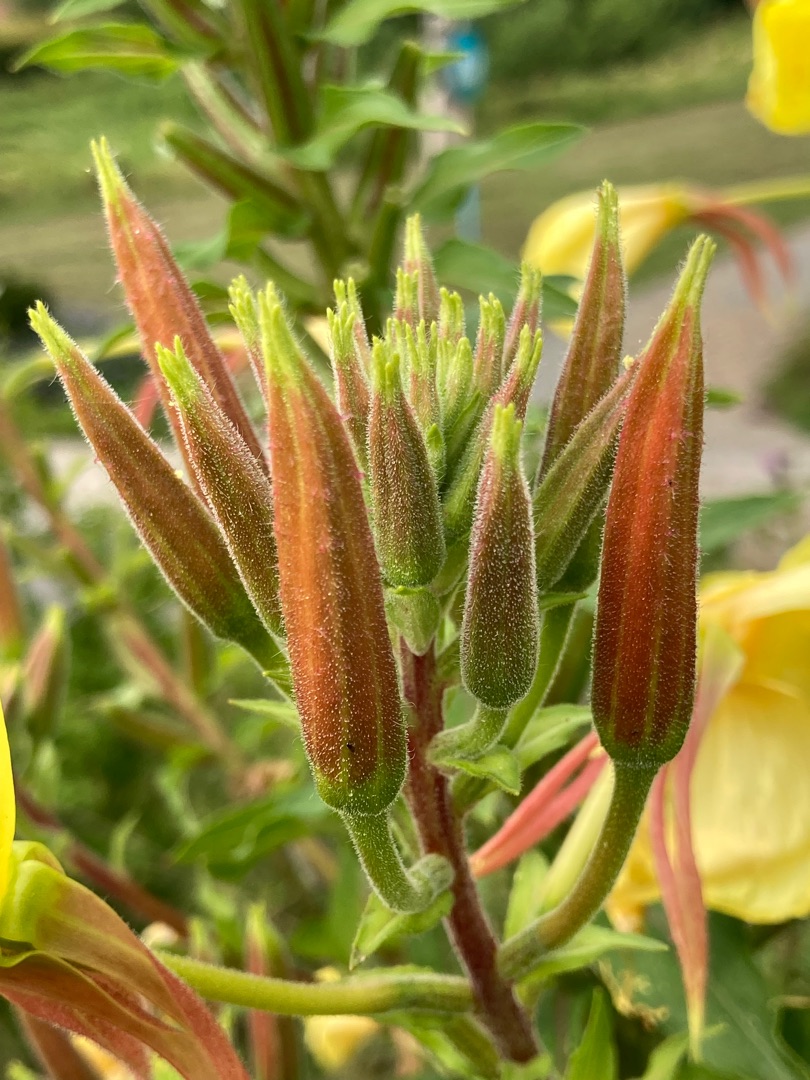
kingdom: Plantae
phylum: Tracheophyta
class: Magnoliopsida
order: Myrtales
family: Onagraceae
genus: Oenothera
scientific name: Oenothera glazioviana
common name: Kæmpe-natlys
